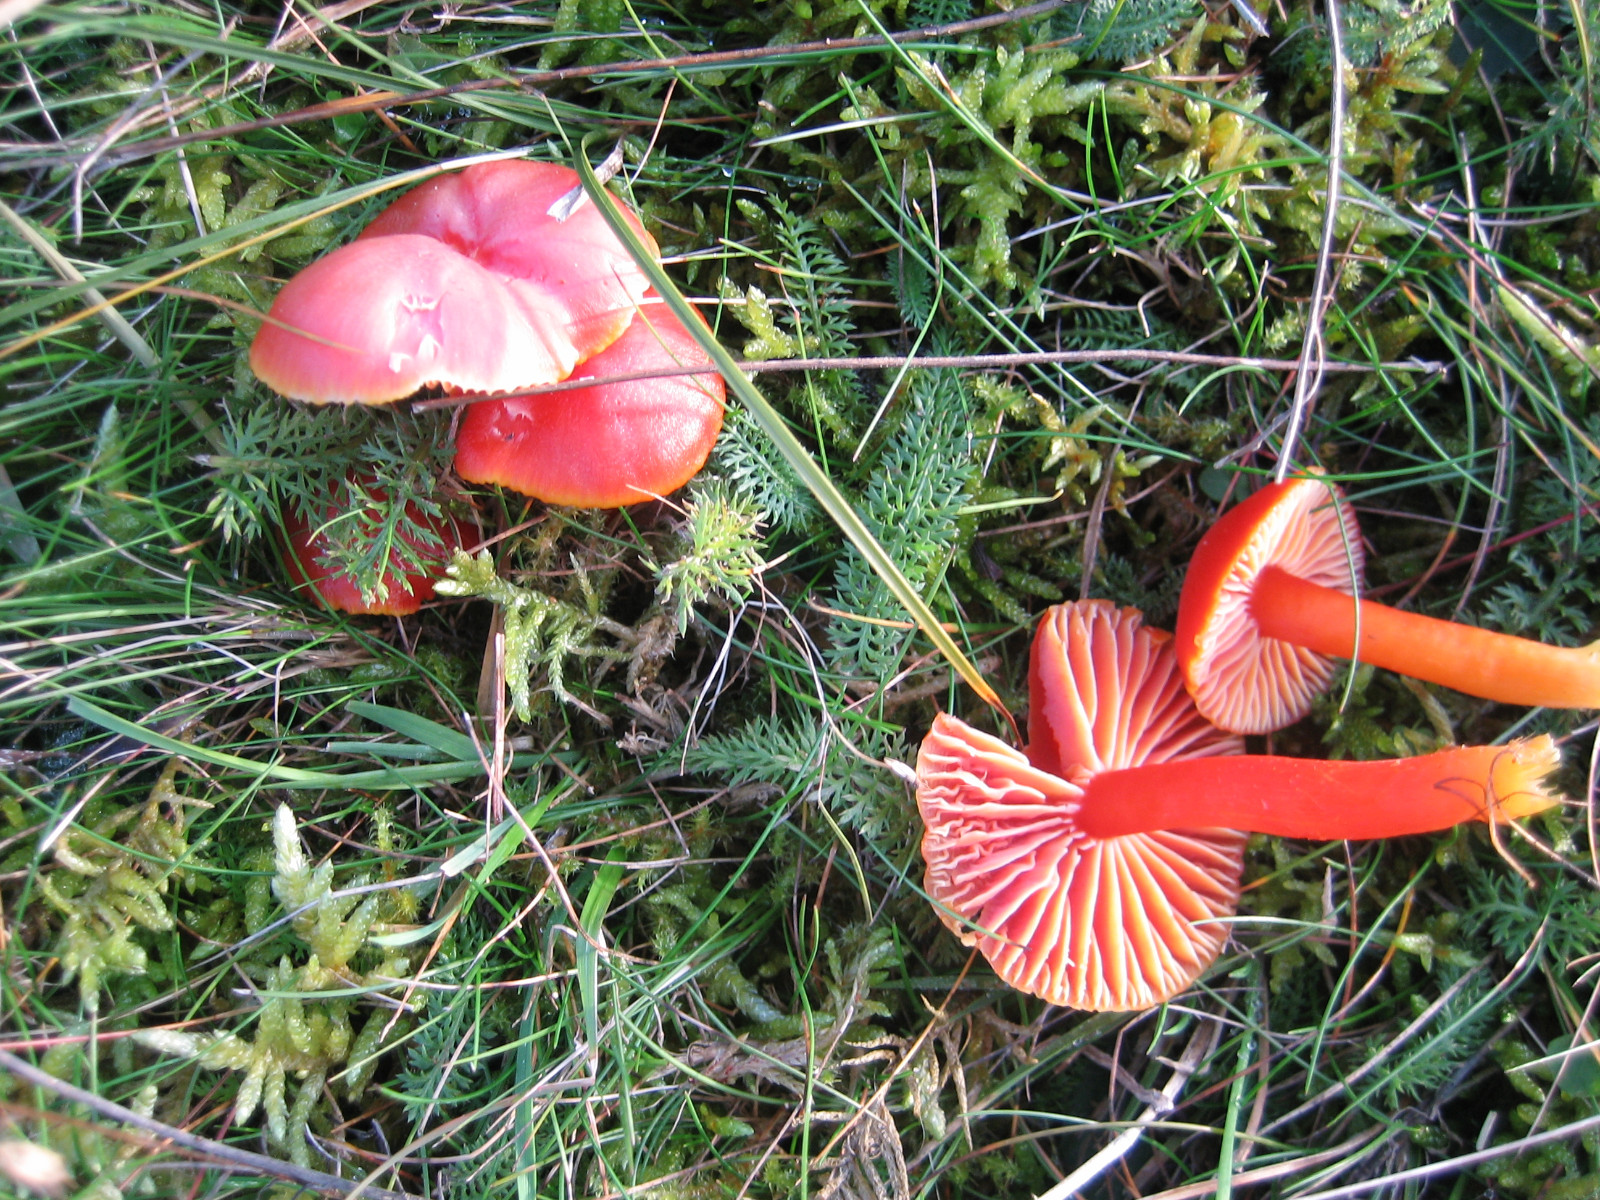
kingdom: Fungi
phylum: Basidiomycota
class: Agaricomycetes
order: Agaricales
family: Hygrophoraceae
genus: Hygrocybe
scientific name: Hygrocybe coccinea
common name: cinnober-vokshat
